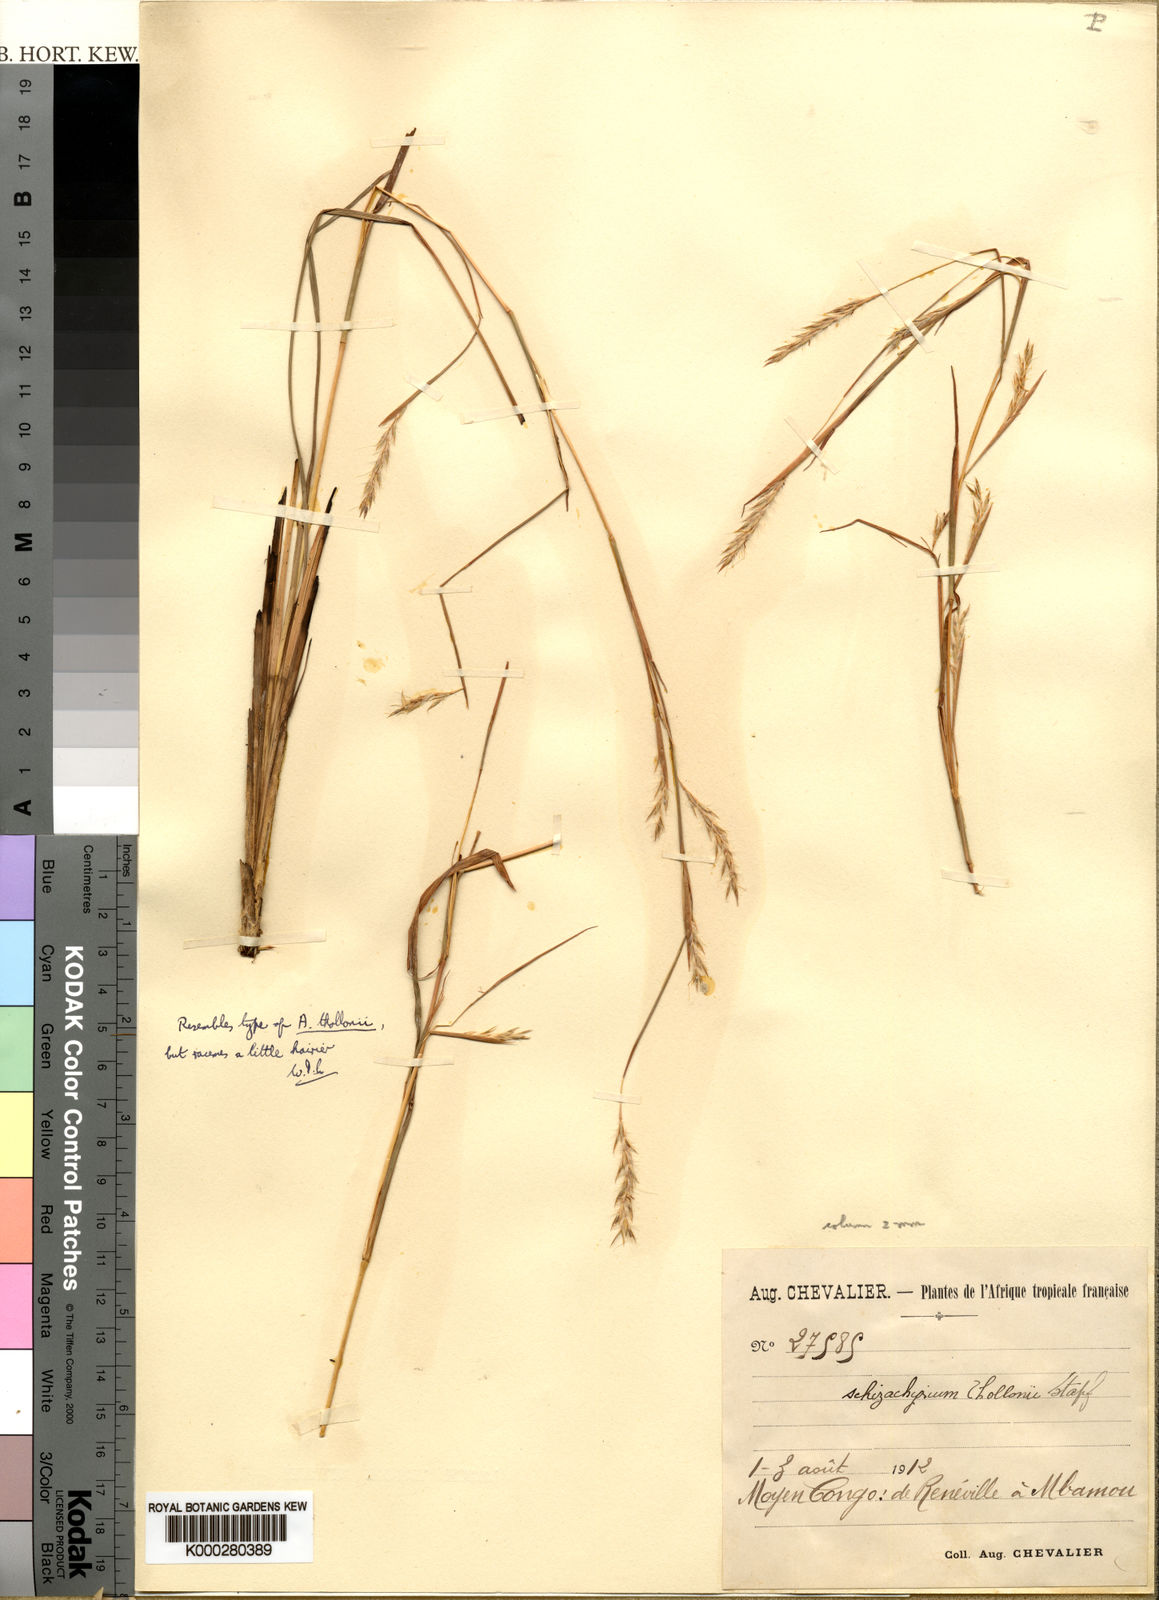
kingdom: Plantae
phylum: Tracheophyta
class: Liliopsida
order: Poales
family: Poaceae
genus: Schizachyrium
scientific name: Schizachyrium thollonii
